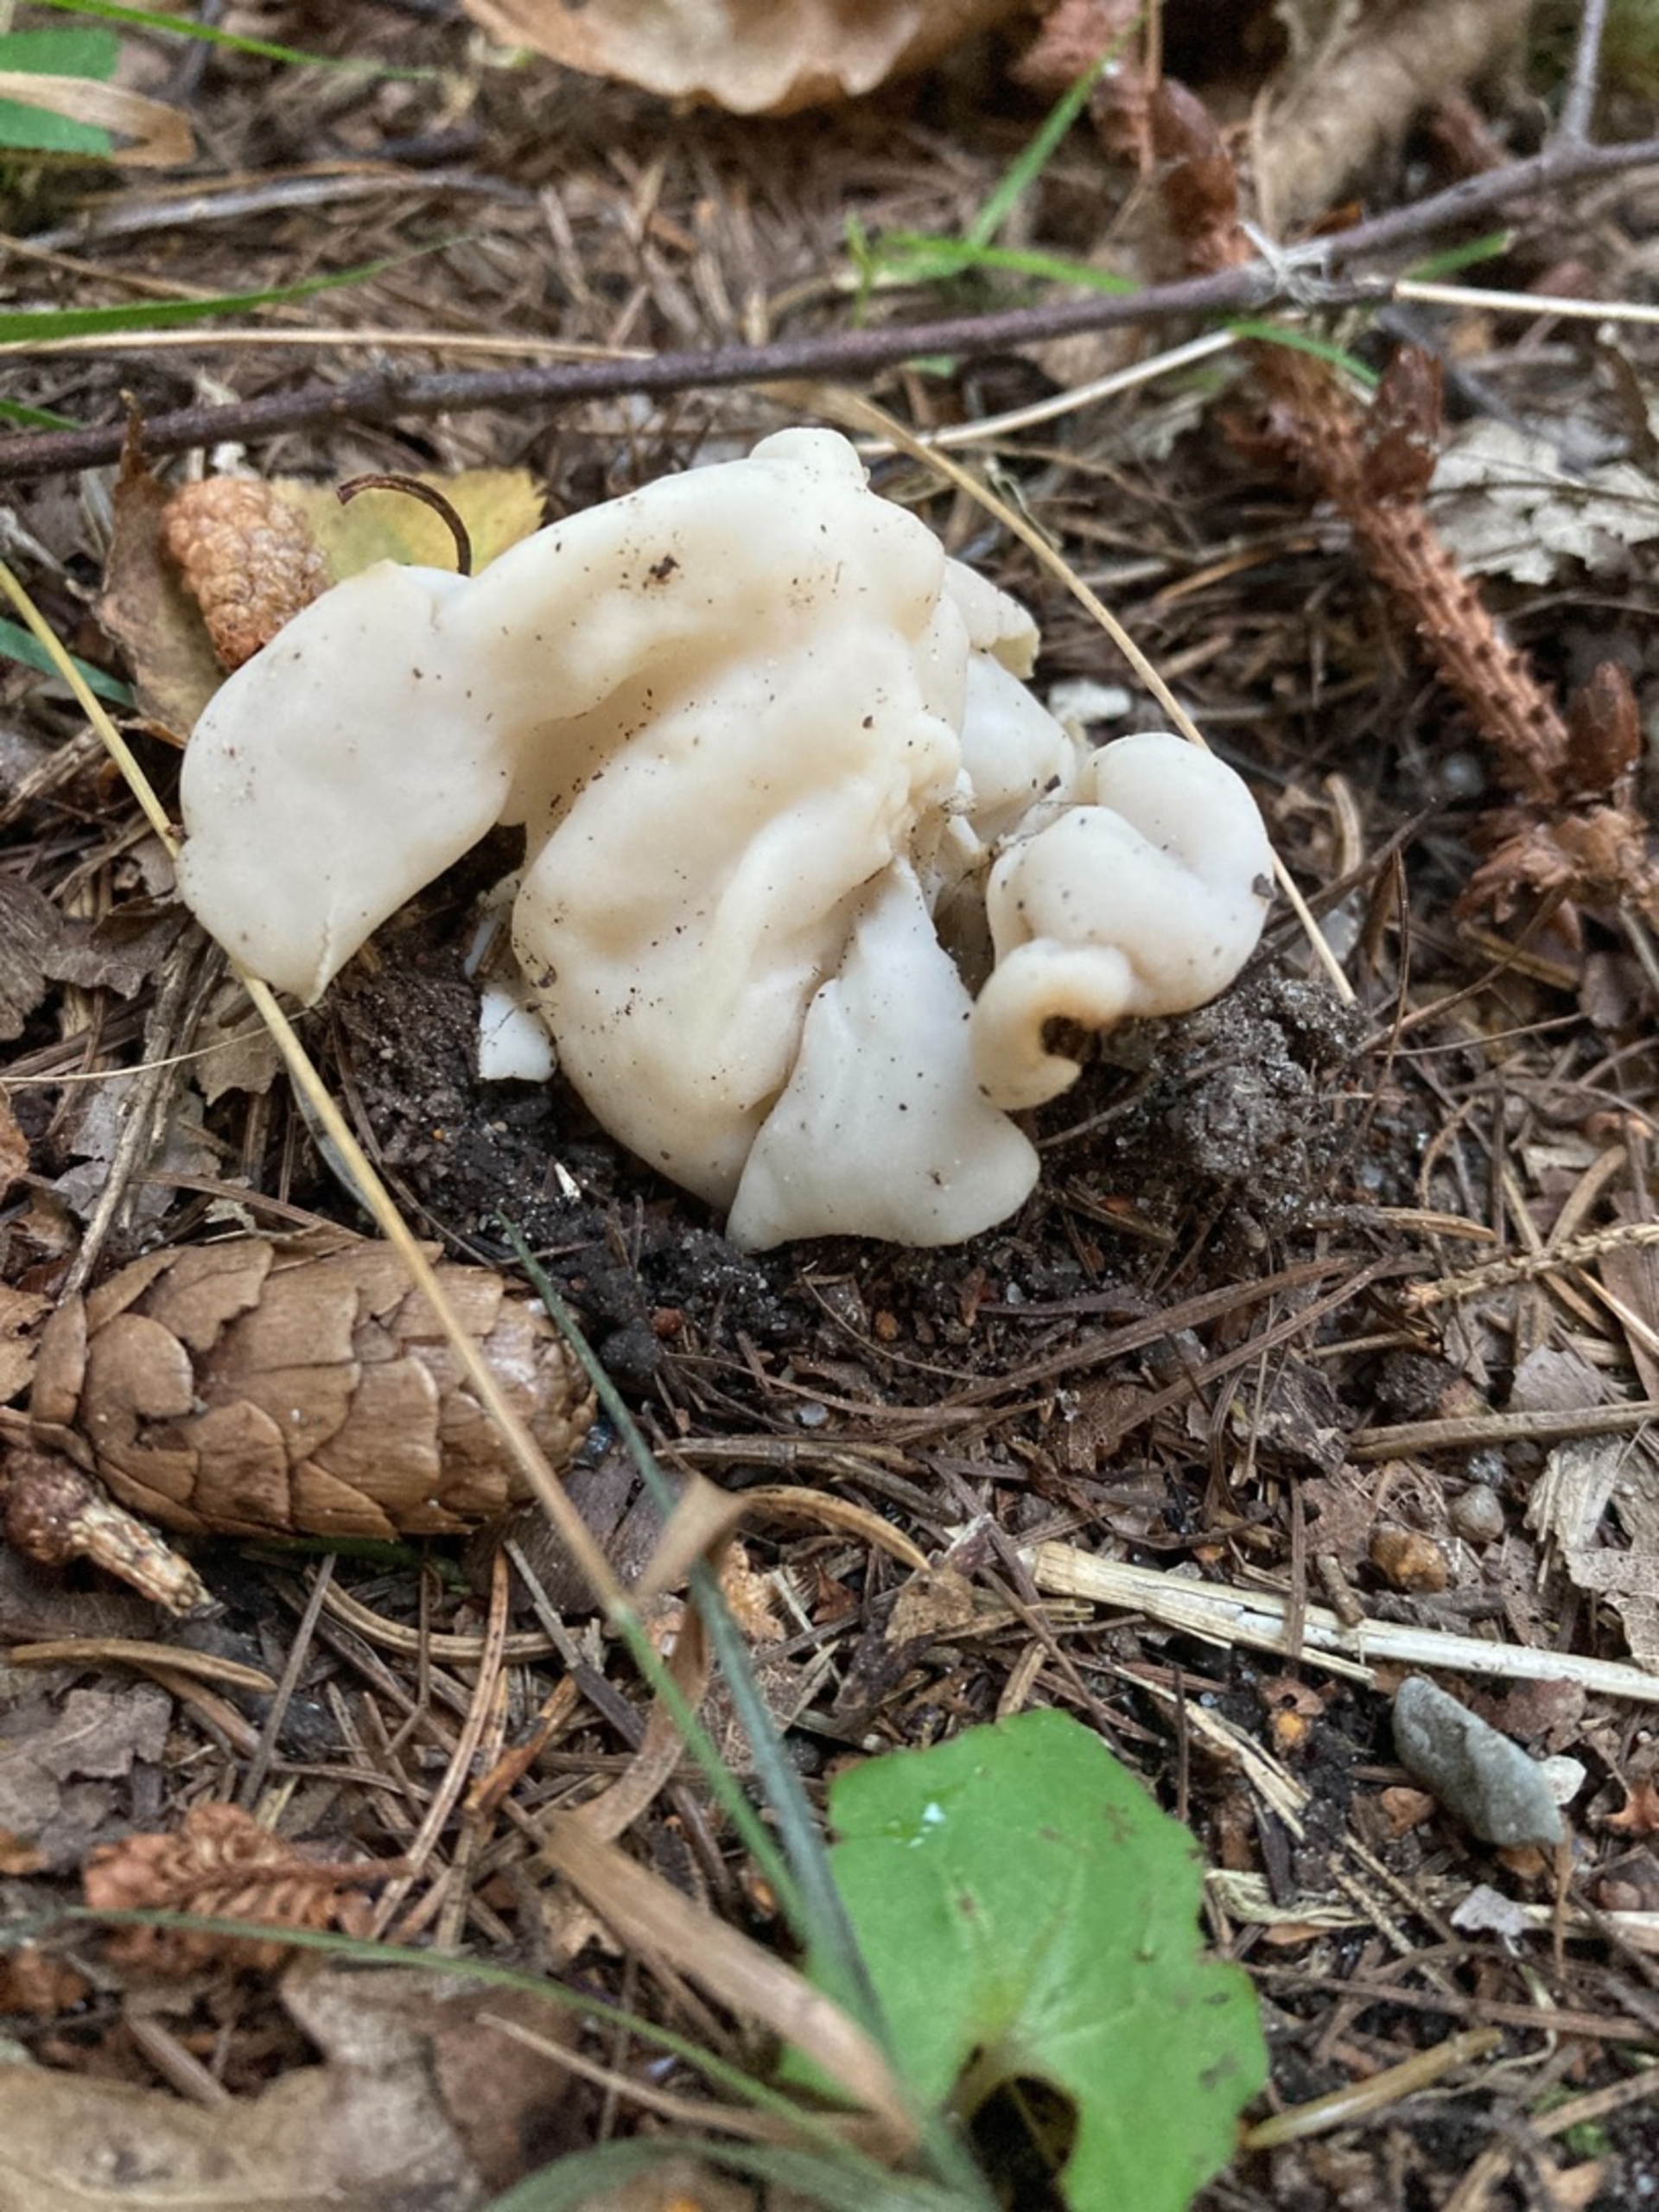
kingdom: Fungi
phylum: Ascomycota
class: Pezizomycetes
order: Pezizales
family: Helvellaceae
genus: Helvella
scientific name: Helvella crispa
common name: Kruset foldhat
